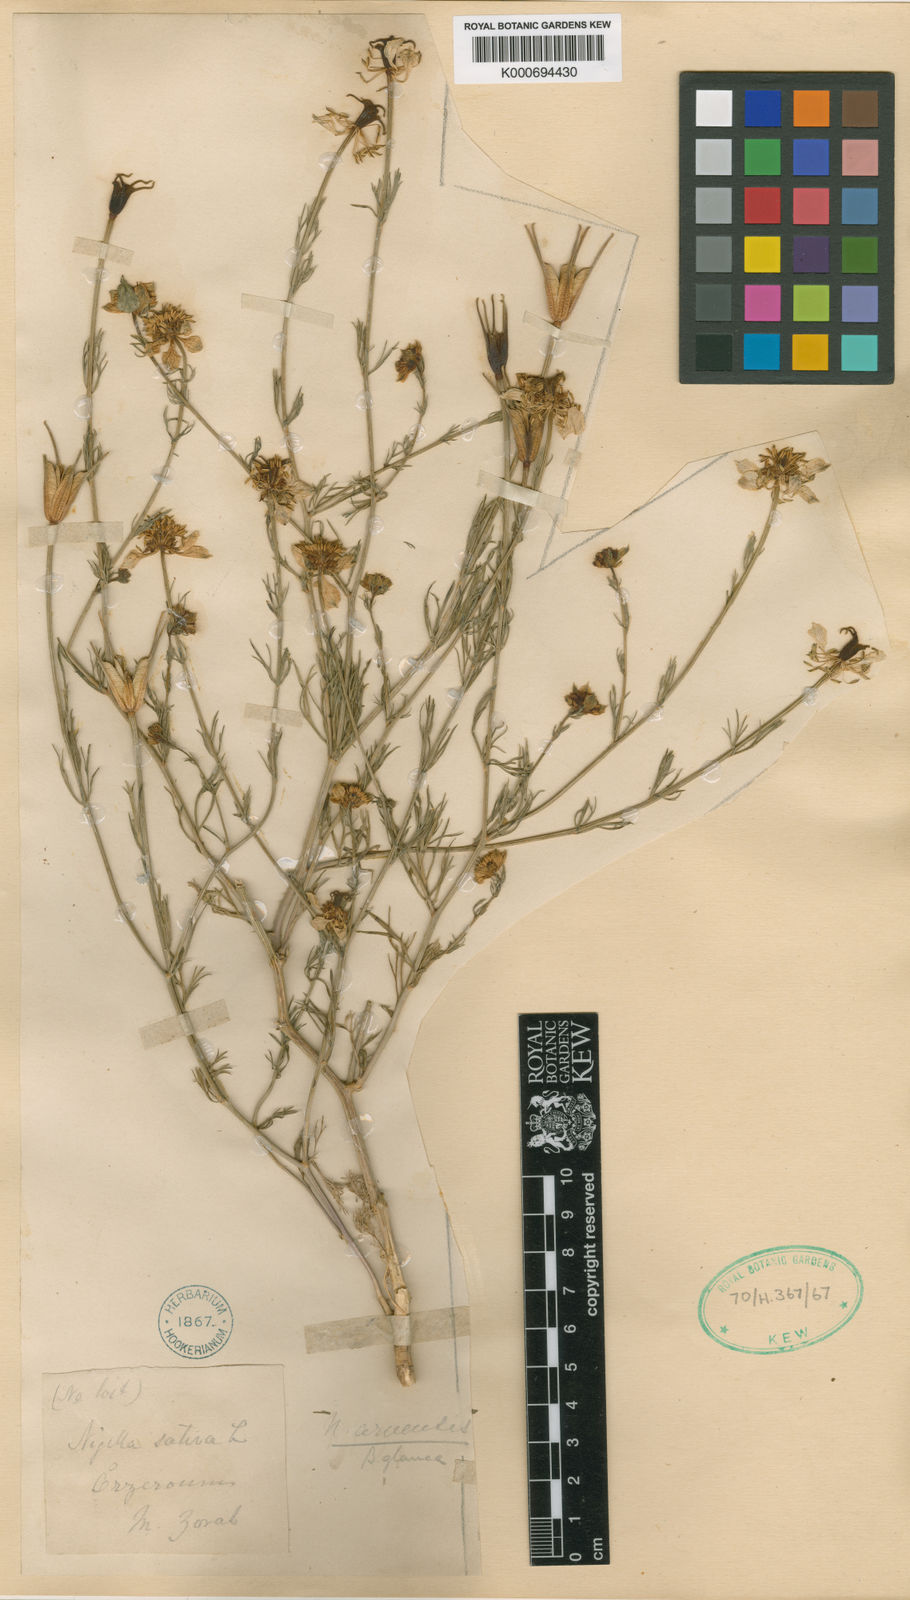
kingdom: Plantae
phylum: Tracheophyta
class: Magnoliopsida
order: Ranunculales
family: Ranunculaceae
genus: Nigella
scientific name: Nigella arvensis
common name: Wild fennel-flower
